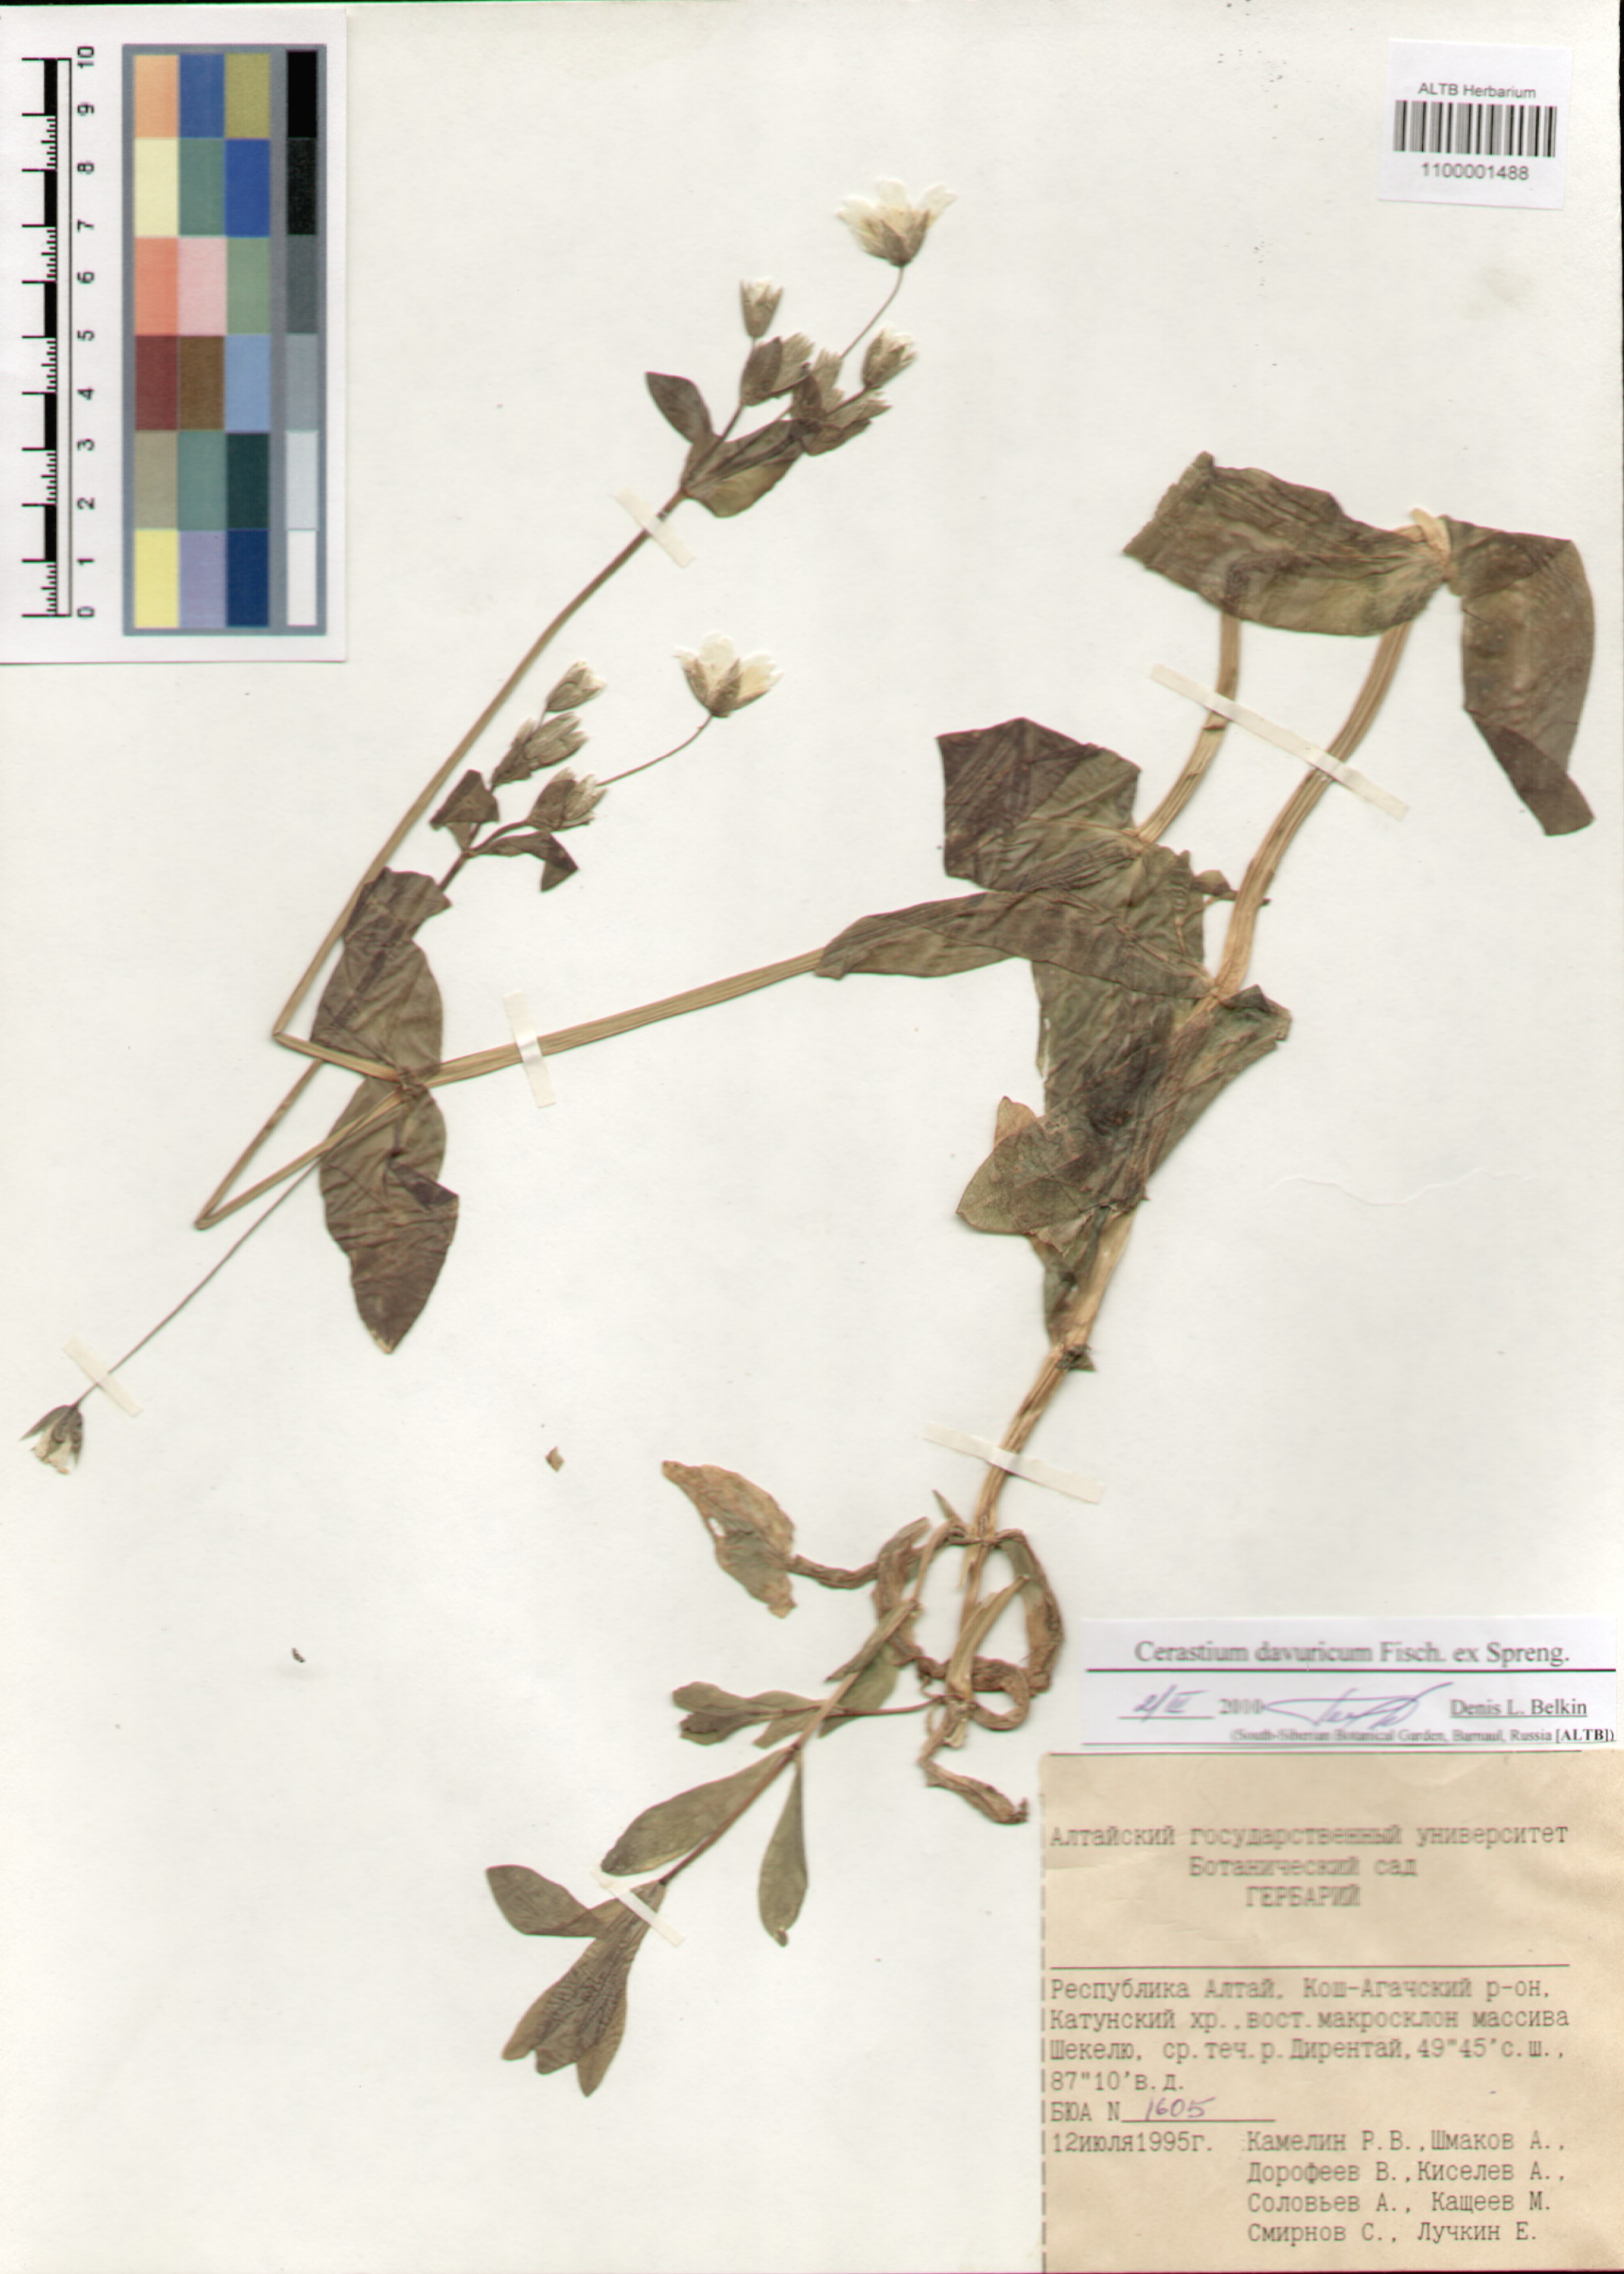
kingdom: Plantae
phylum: Tracheophyta
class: Magnoliopsida
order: Caryophyllales
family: Caryophyllaceae
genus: Dichodon
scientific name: Dichodon davuricum
